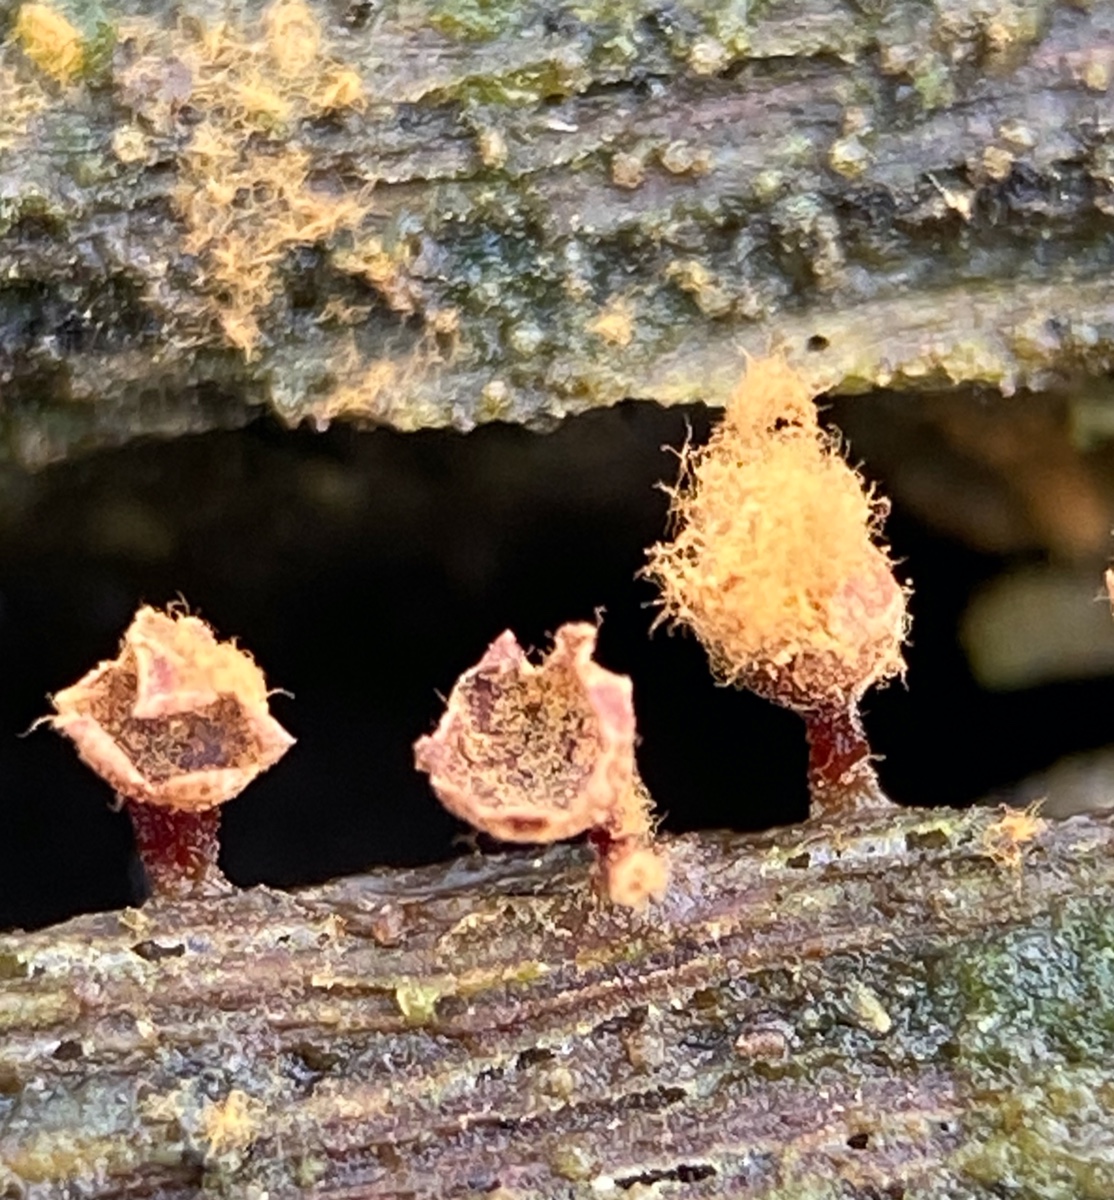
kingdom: Protozoa
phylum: Mycetozoa
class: Myxomycetes
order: Trichiales
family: Trichiaceae
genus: Metatrichia
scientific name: Metatrichia floriformis
